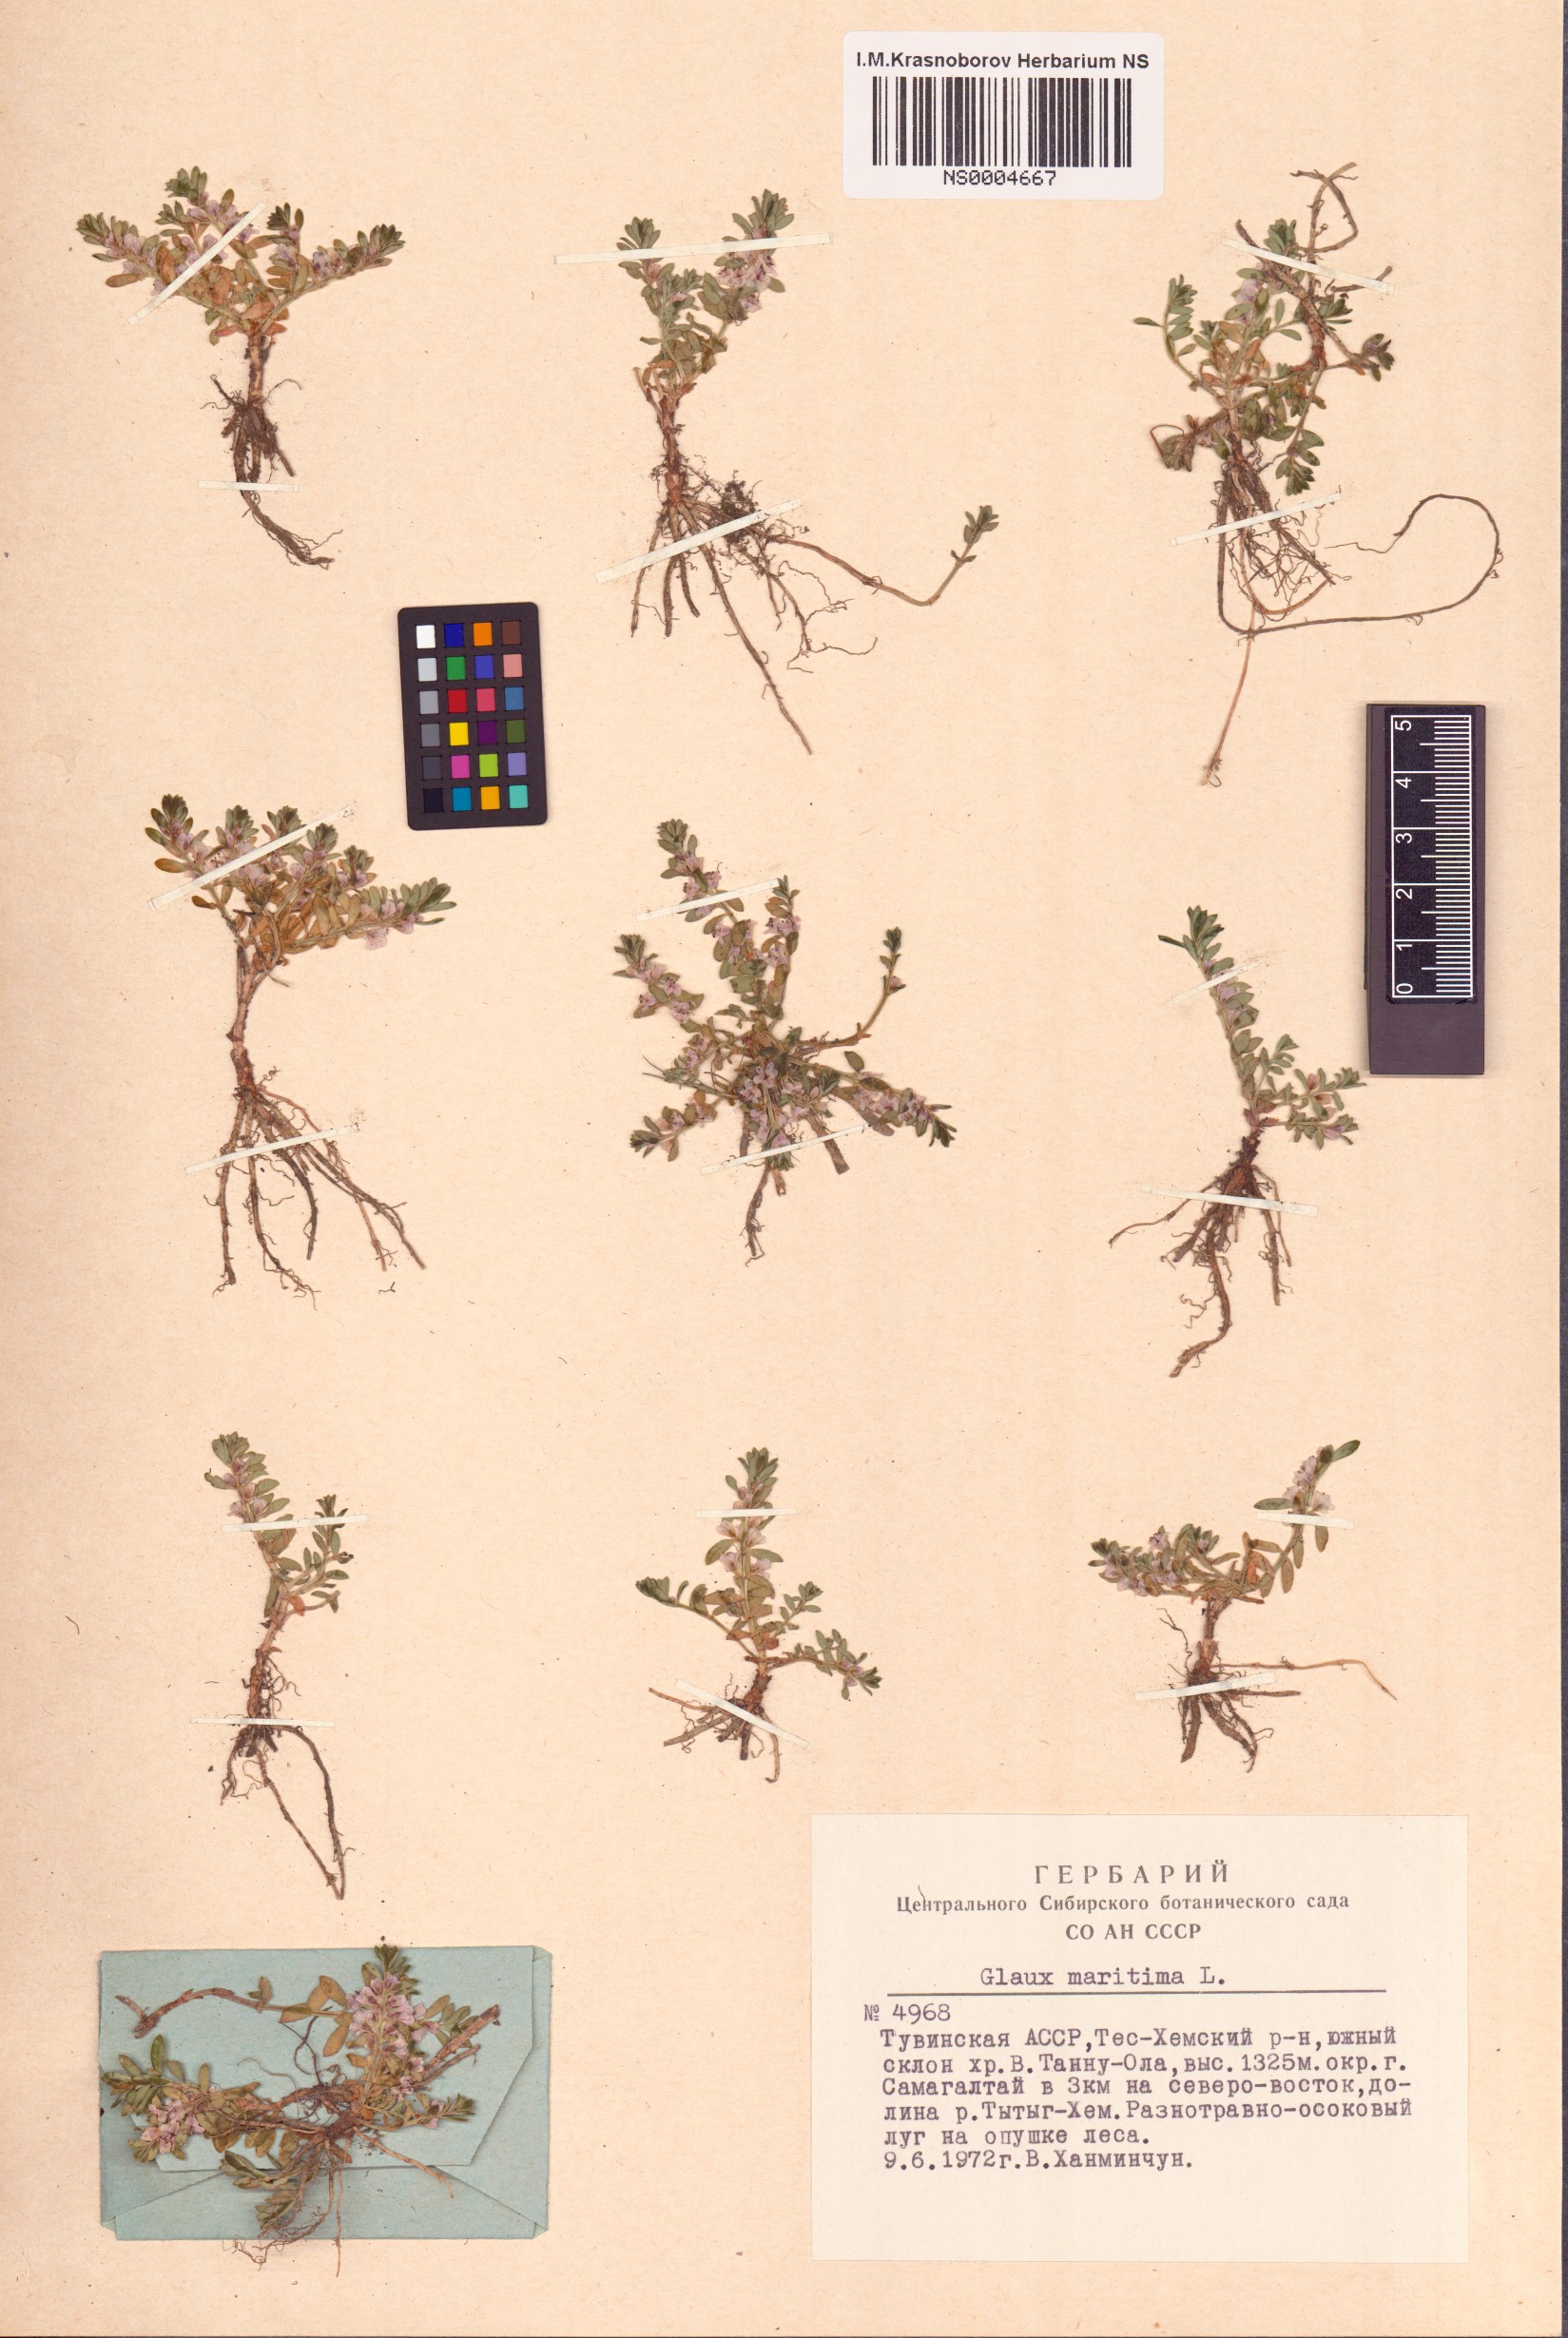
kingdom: Plantae
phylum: Tracheophyta
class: Magnoliopsida
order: Ericales
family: Primulaceae
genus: Lysimachia
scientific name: Lysimachia maritima
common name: Sea milkwort
